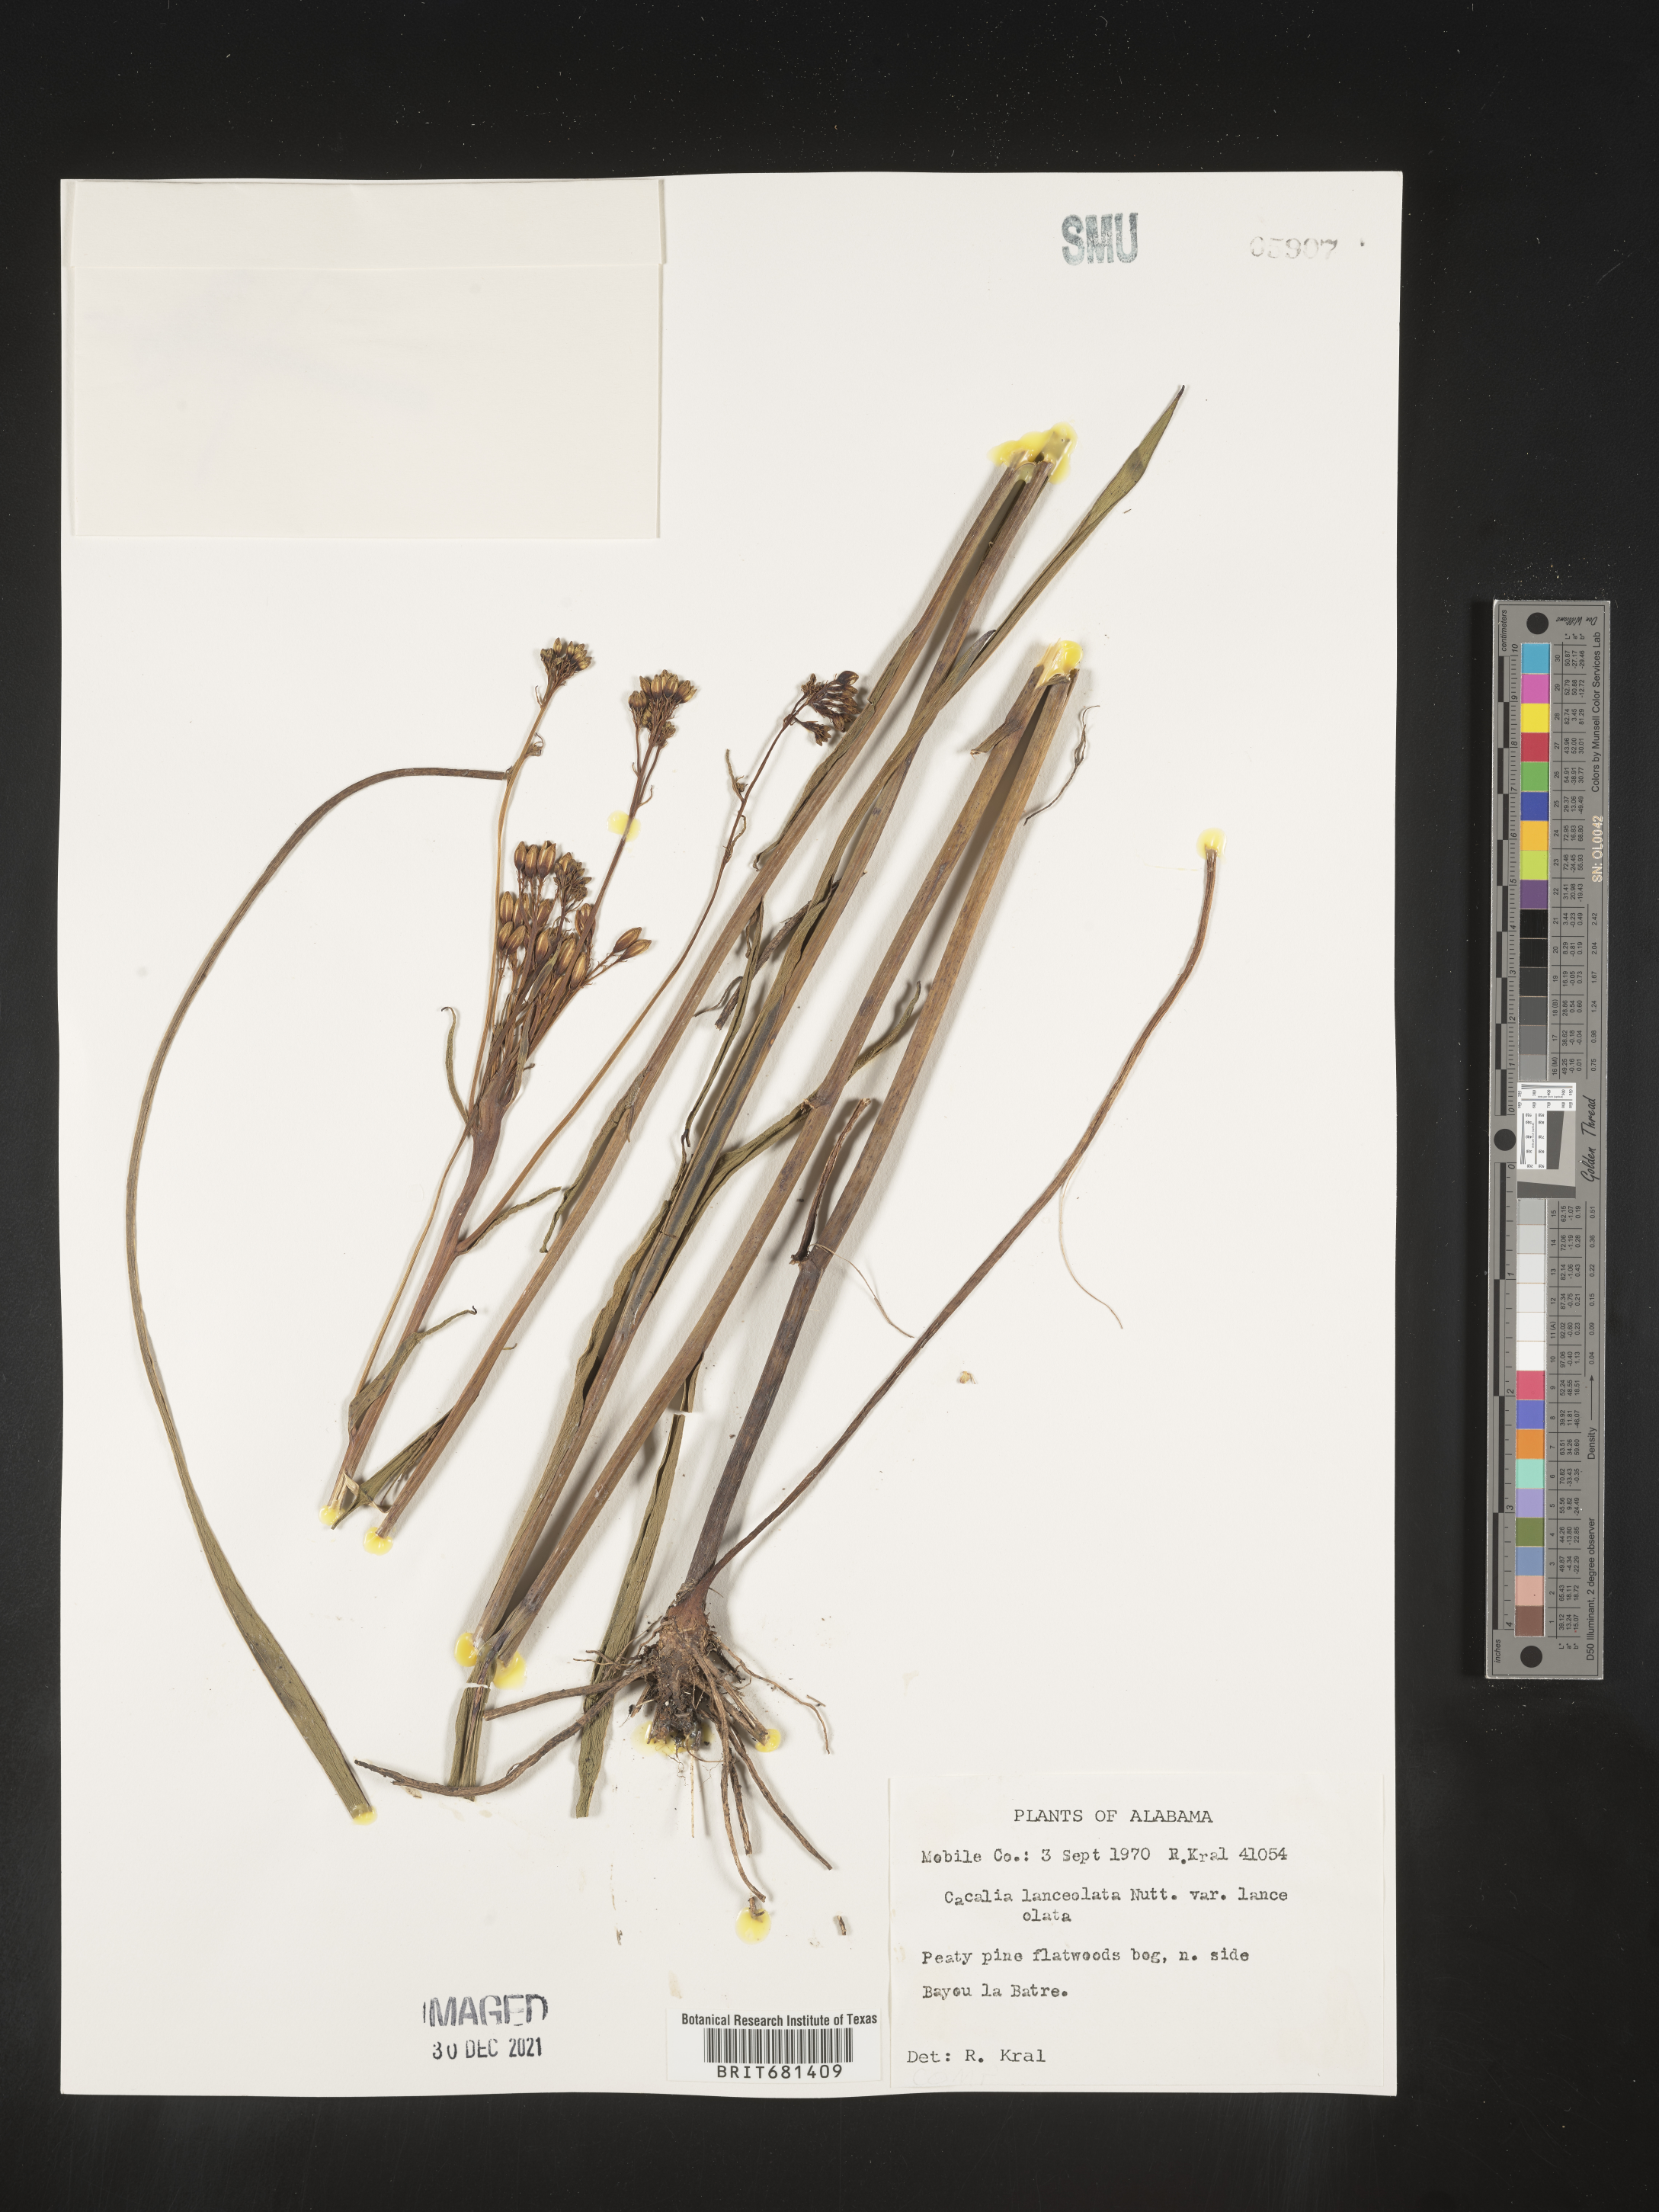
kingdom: Plantae
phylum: Tracheophyta
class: Magnoliopsida
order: Asterales
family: Asteraceae
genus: Arnoglossum
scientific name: Arnoglossum ovatum
